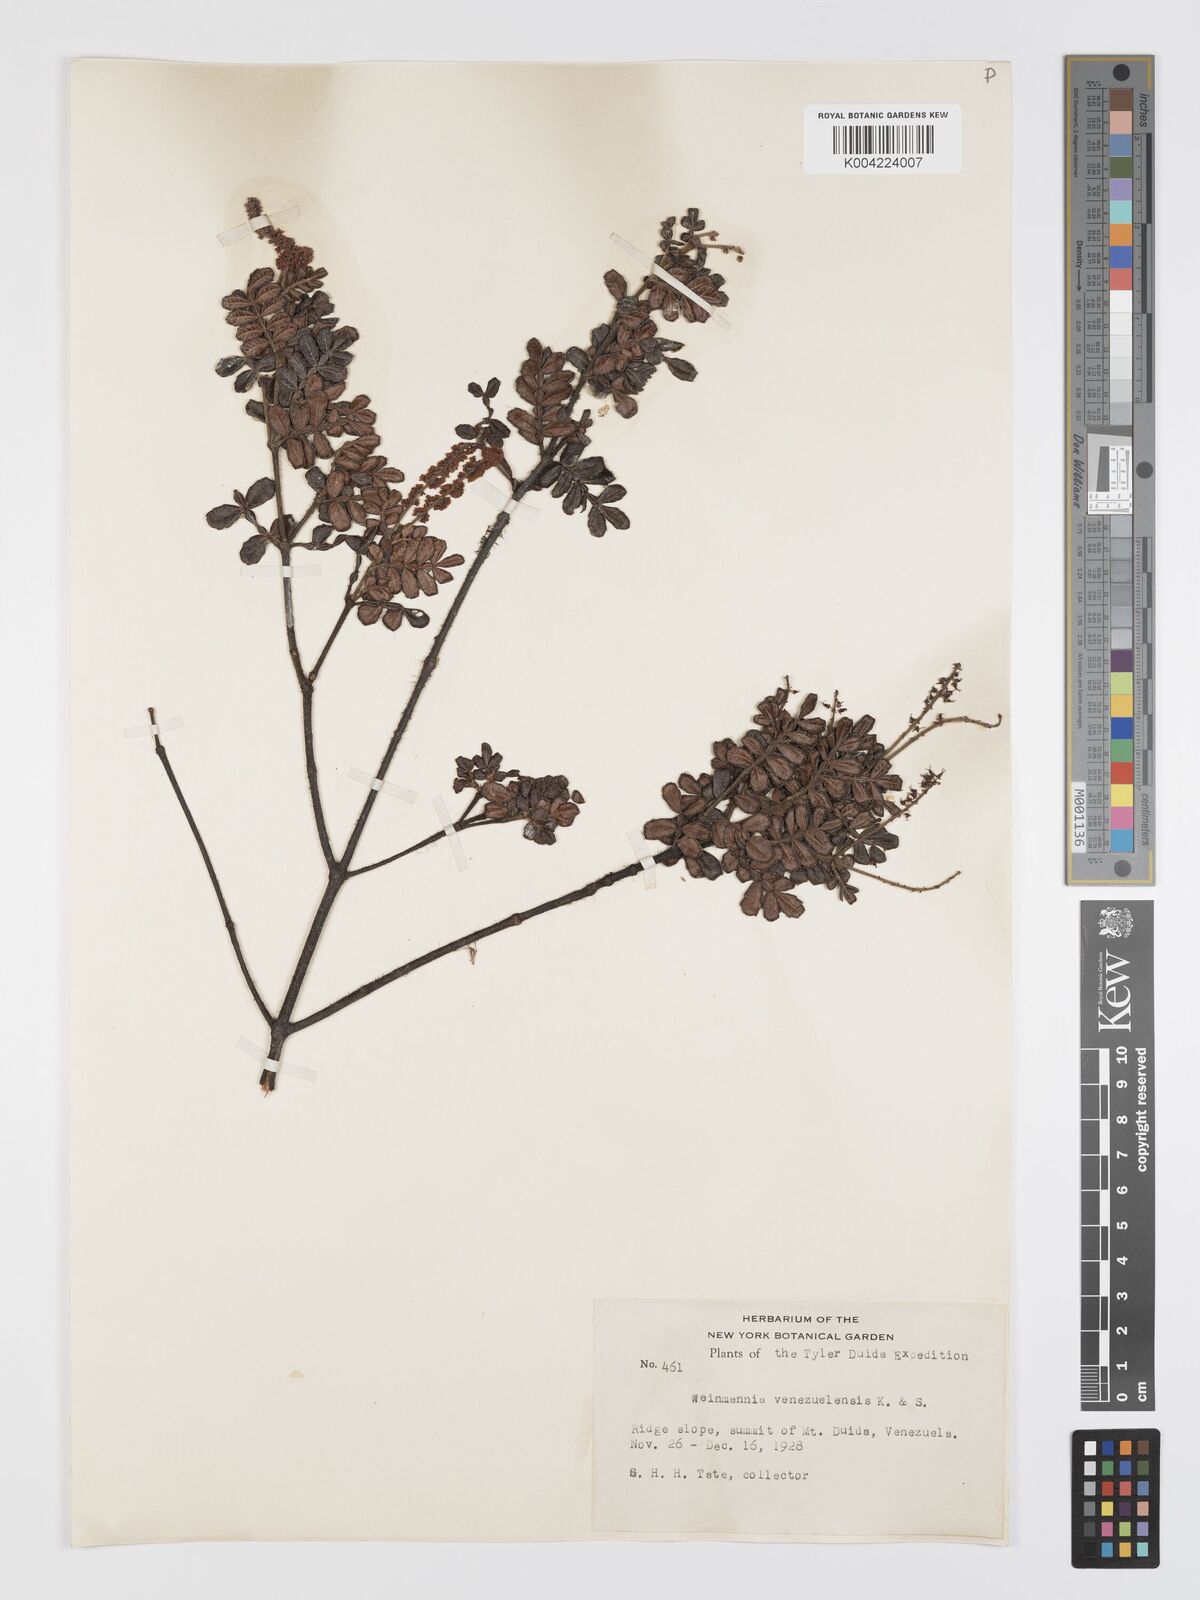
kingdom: Plantae
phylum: Tracheophyta
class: Magnoliopsida
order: Oxalidales
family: Cunoniaceae
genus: Weinmannia
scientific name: Weinmannia lansbergiana
